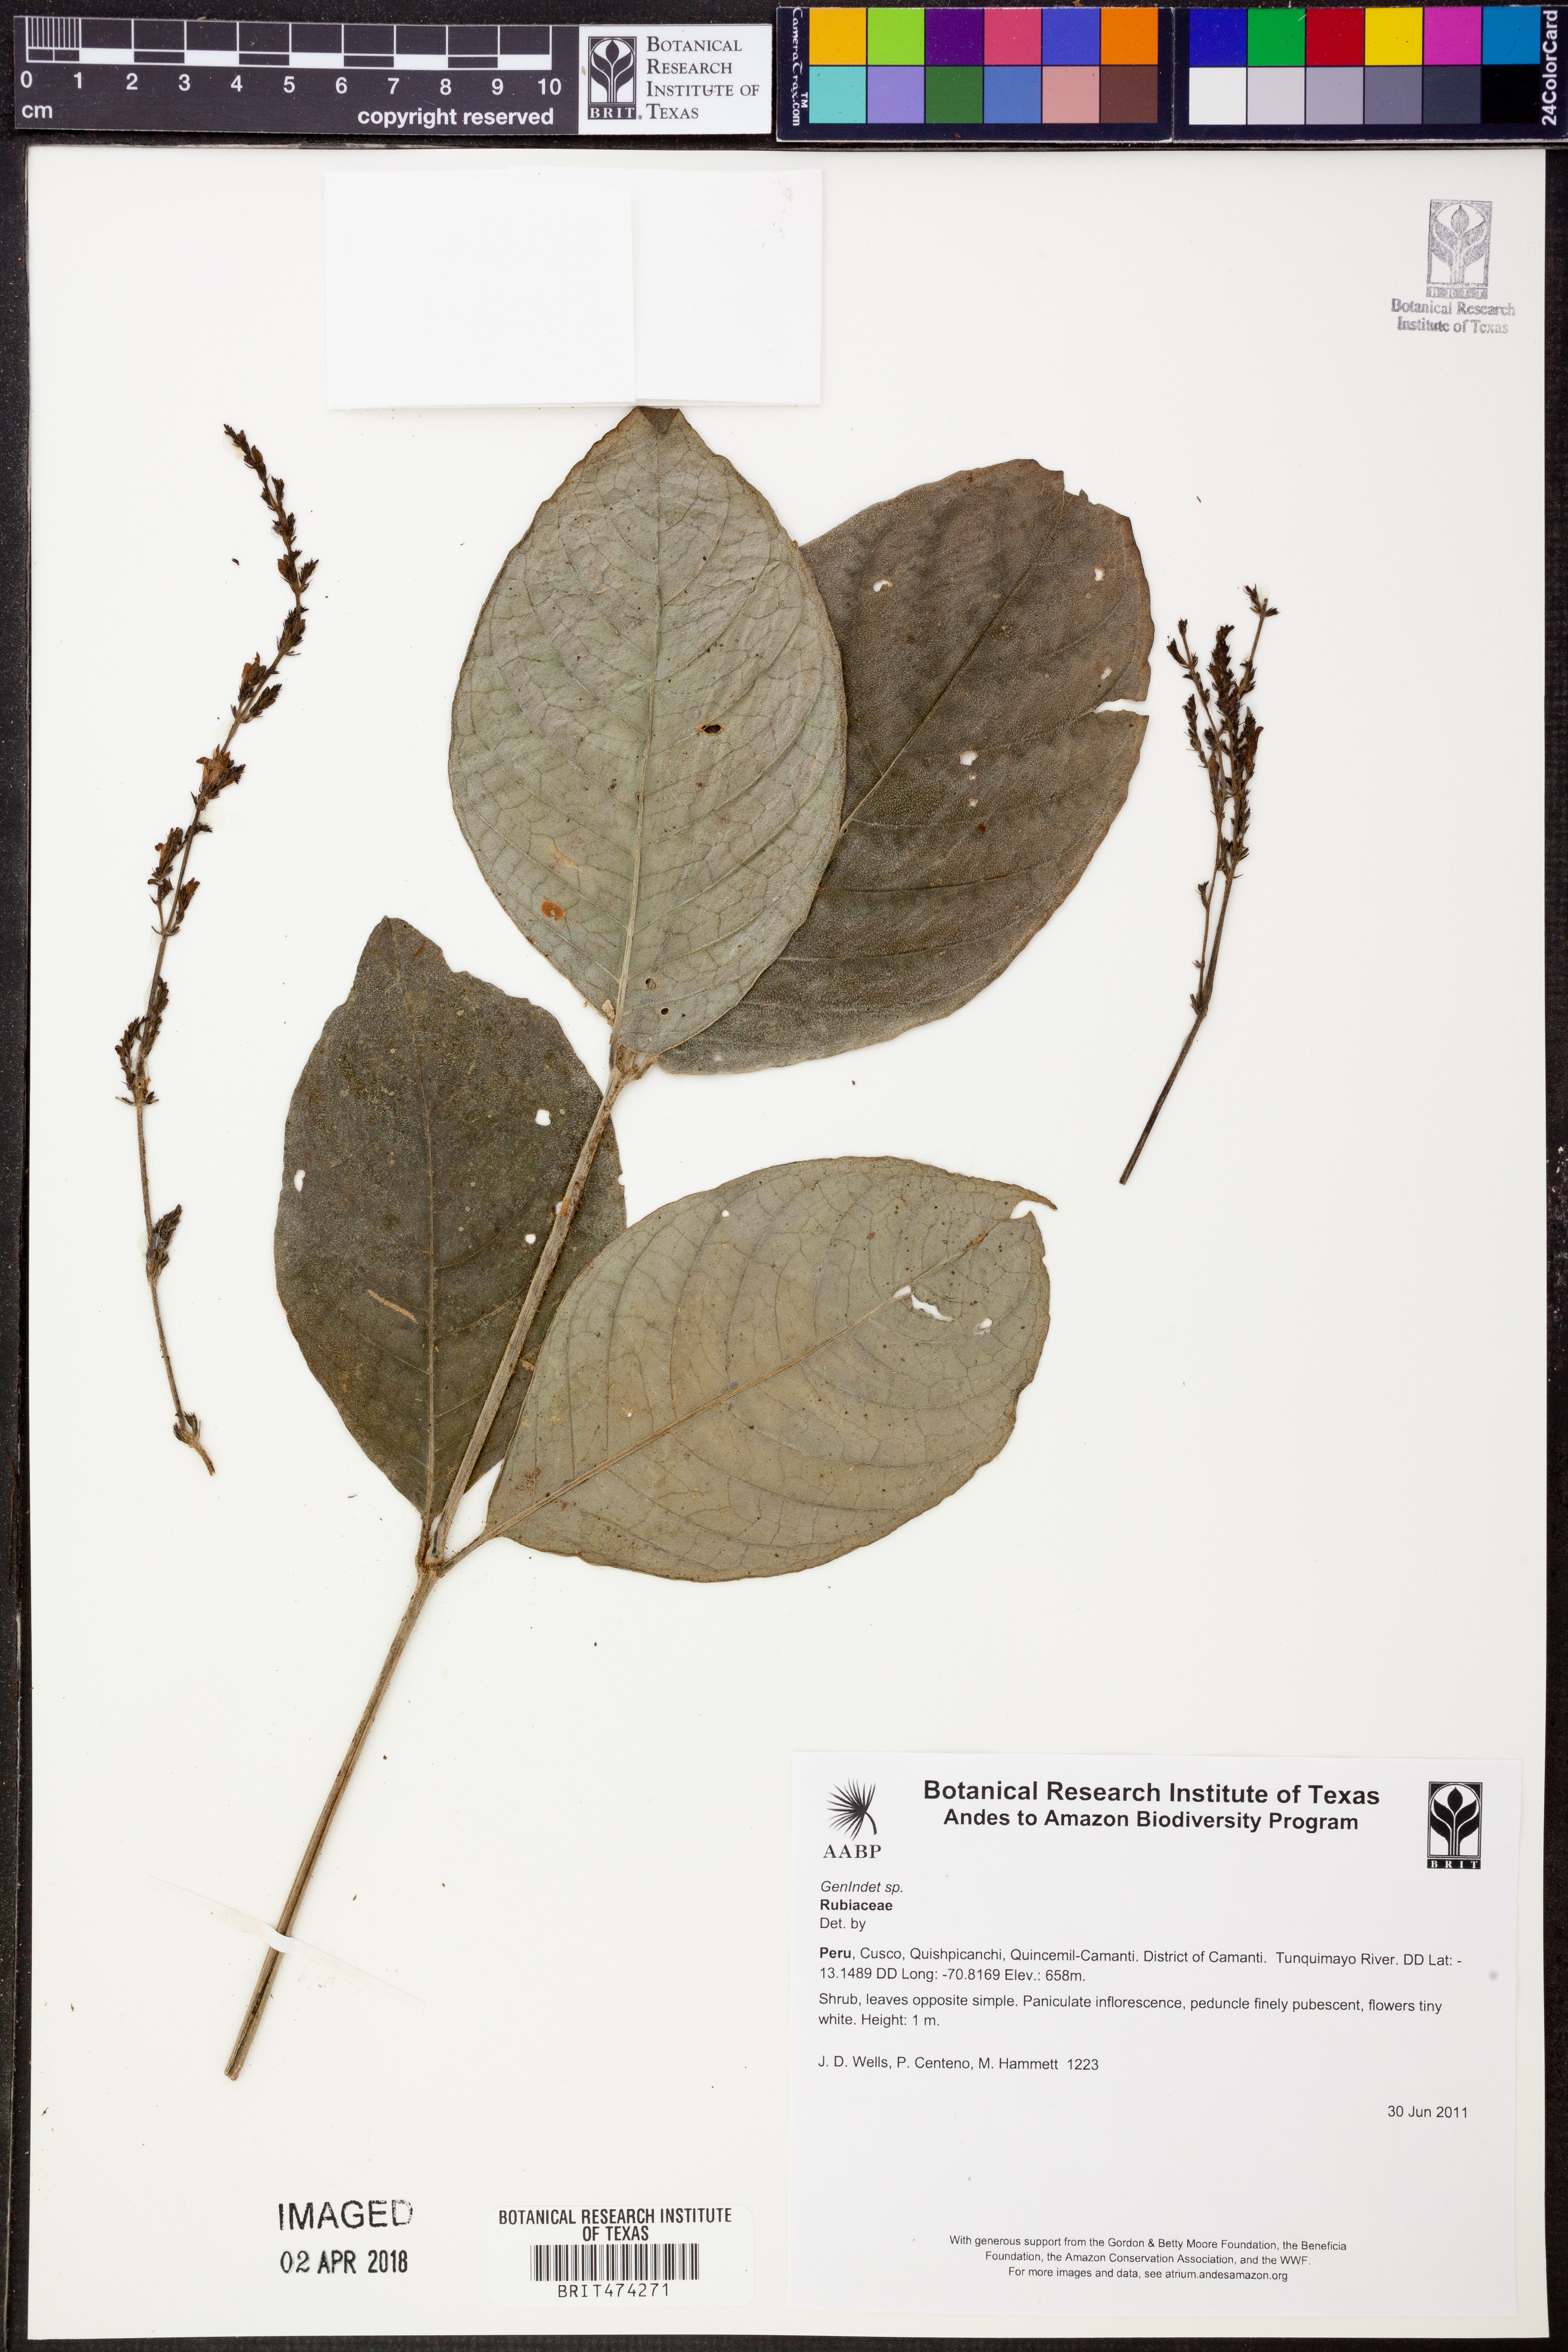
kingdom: Plantae
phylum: Tracheophyta
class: Magnoliopsida
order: Gentianales
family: Rubiaceae
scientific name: Rubiaceae
